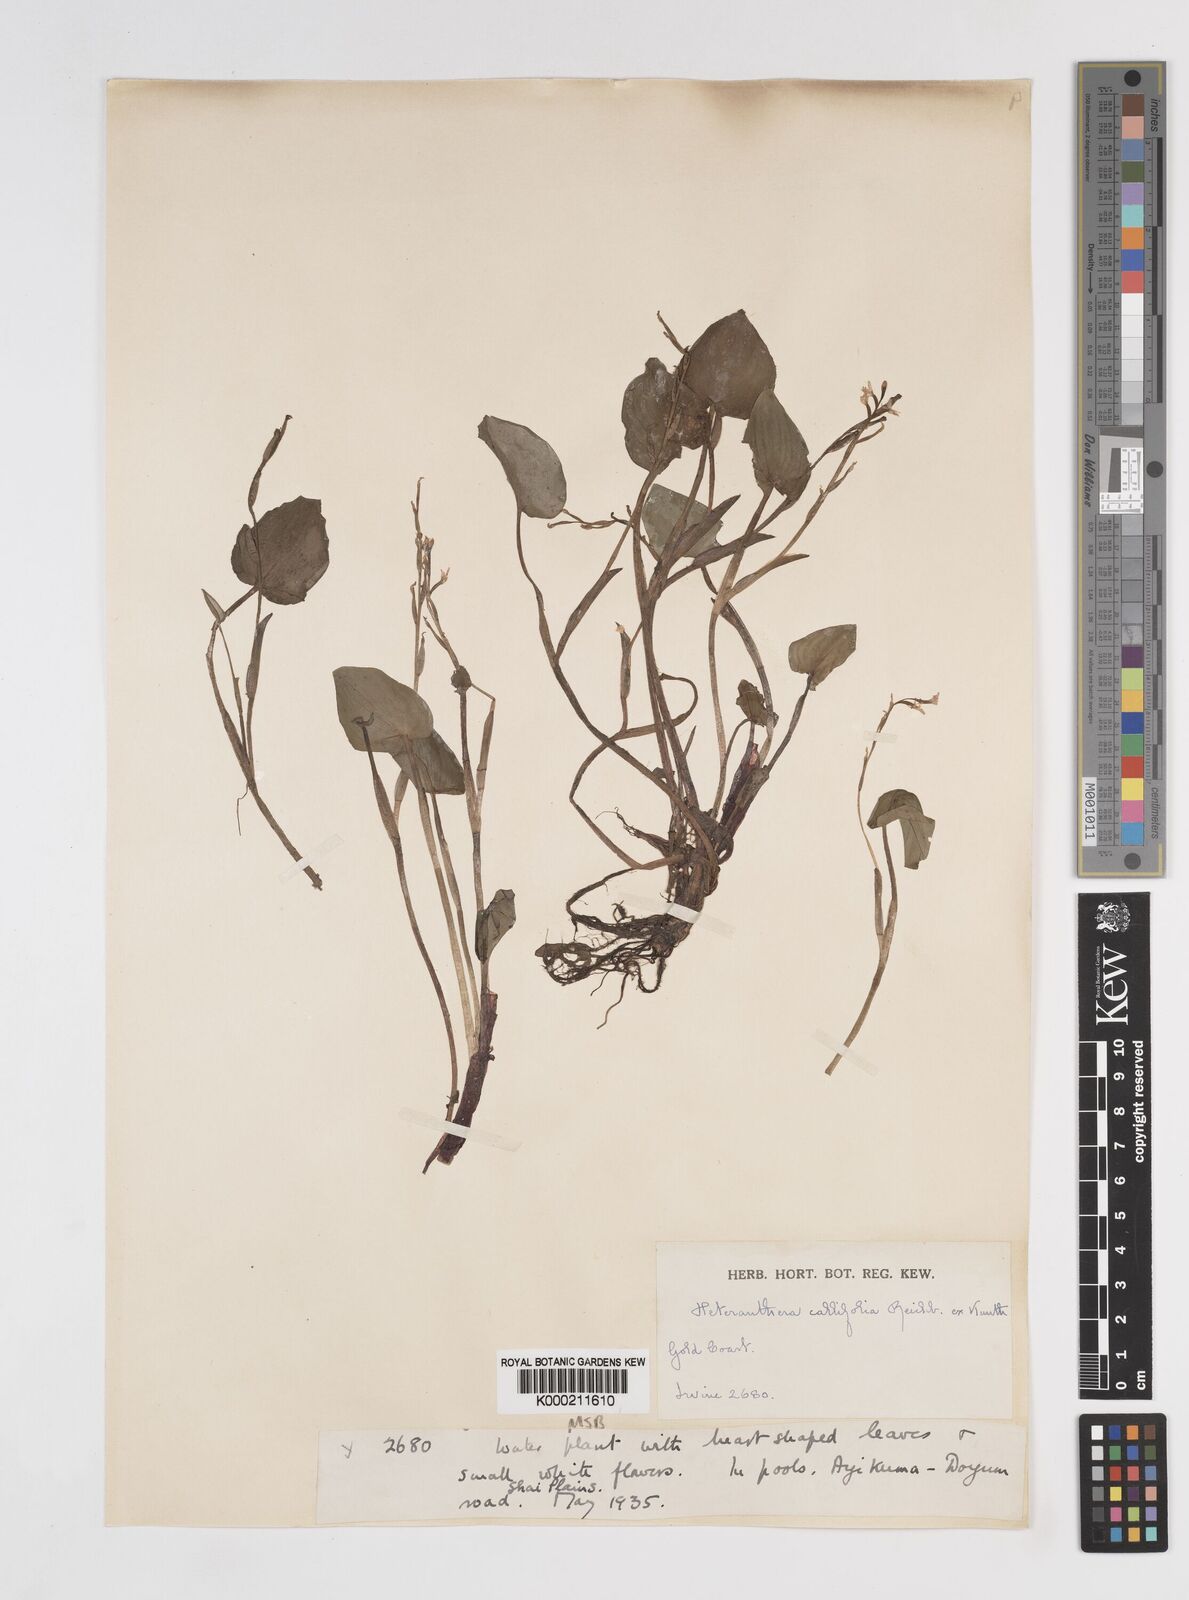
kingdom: Plantae
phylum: Tracheophyta
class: Liliopsida
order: Commelinales
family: Pontederiaceae
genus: Heteranthera
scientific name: Heteranthera callifolia
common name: Mud plantain
